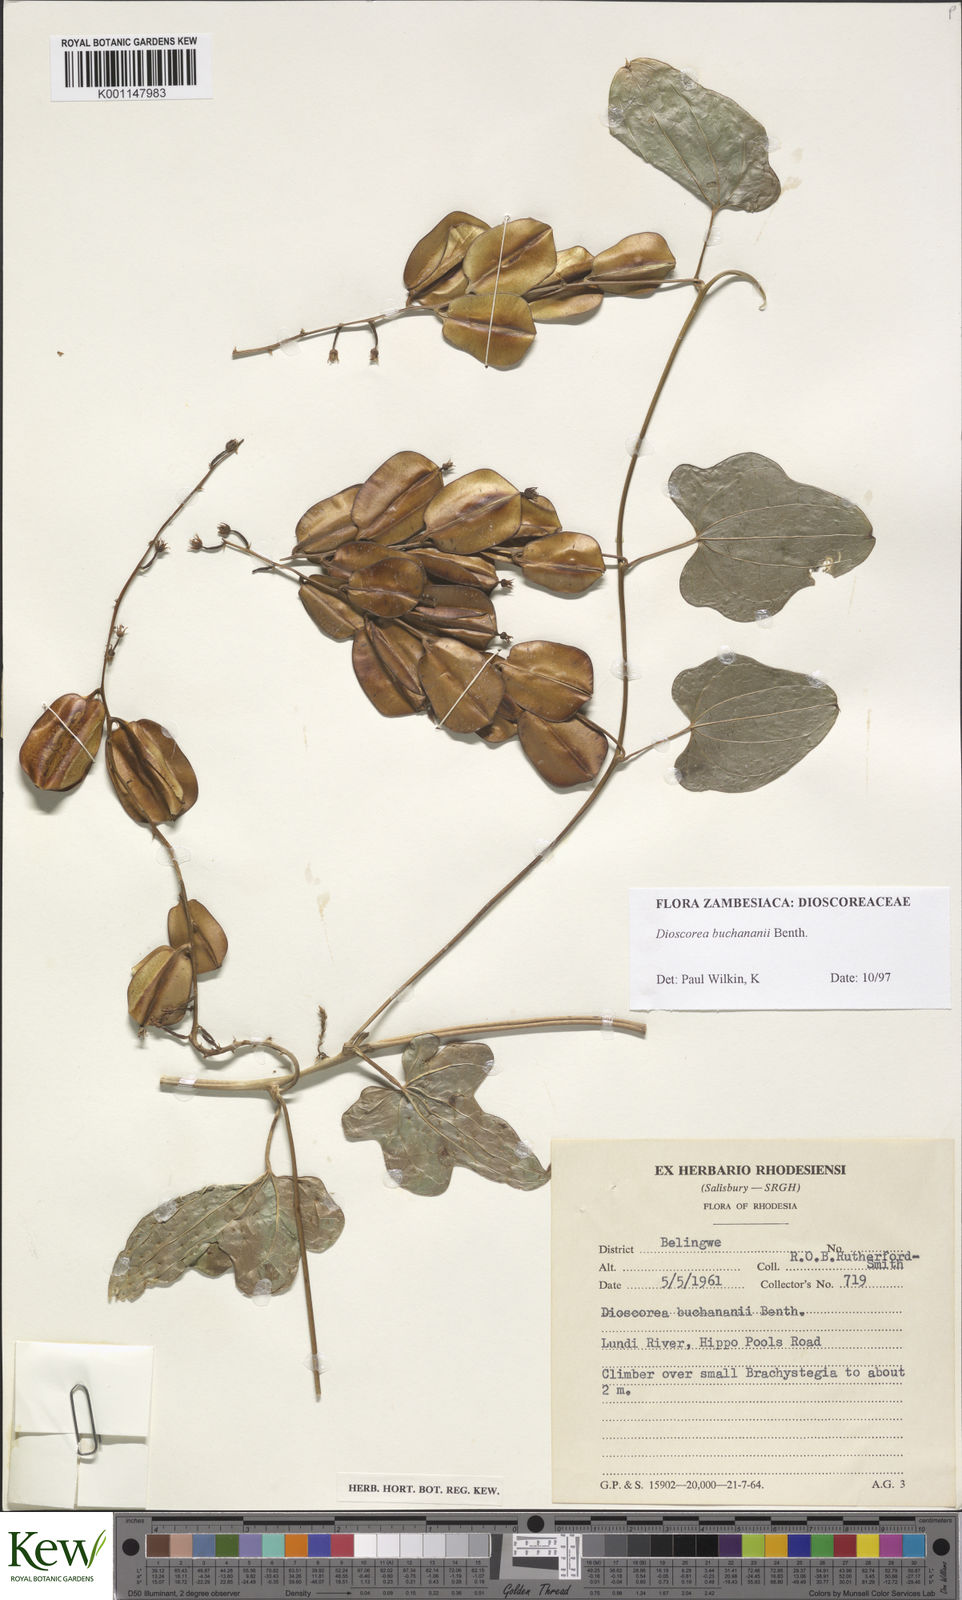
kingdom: Plantae
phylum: Tracheophyta
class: Liliopsida
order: Dioscoreales
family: Dioscoreaceae
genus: Dioscorea
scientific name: Dioscorea buchananii
